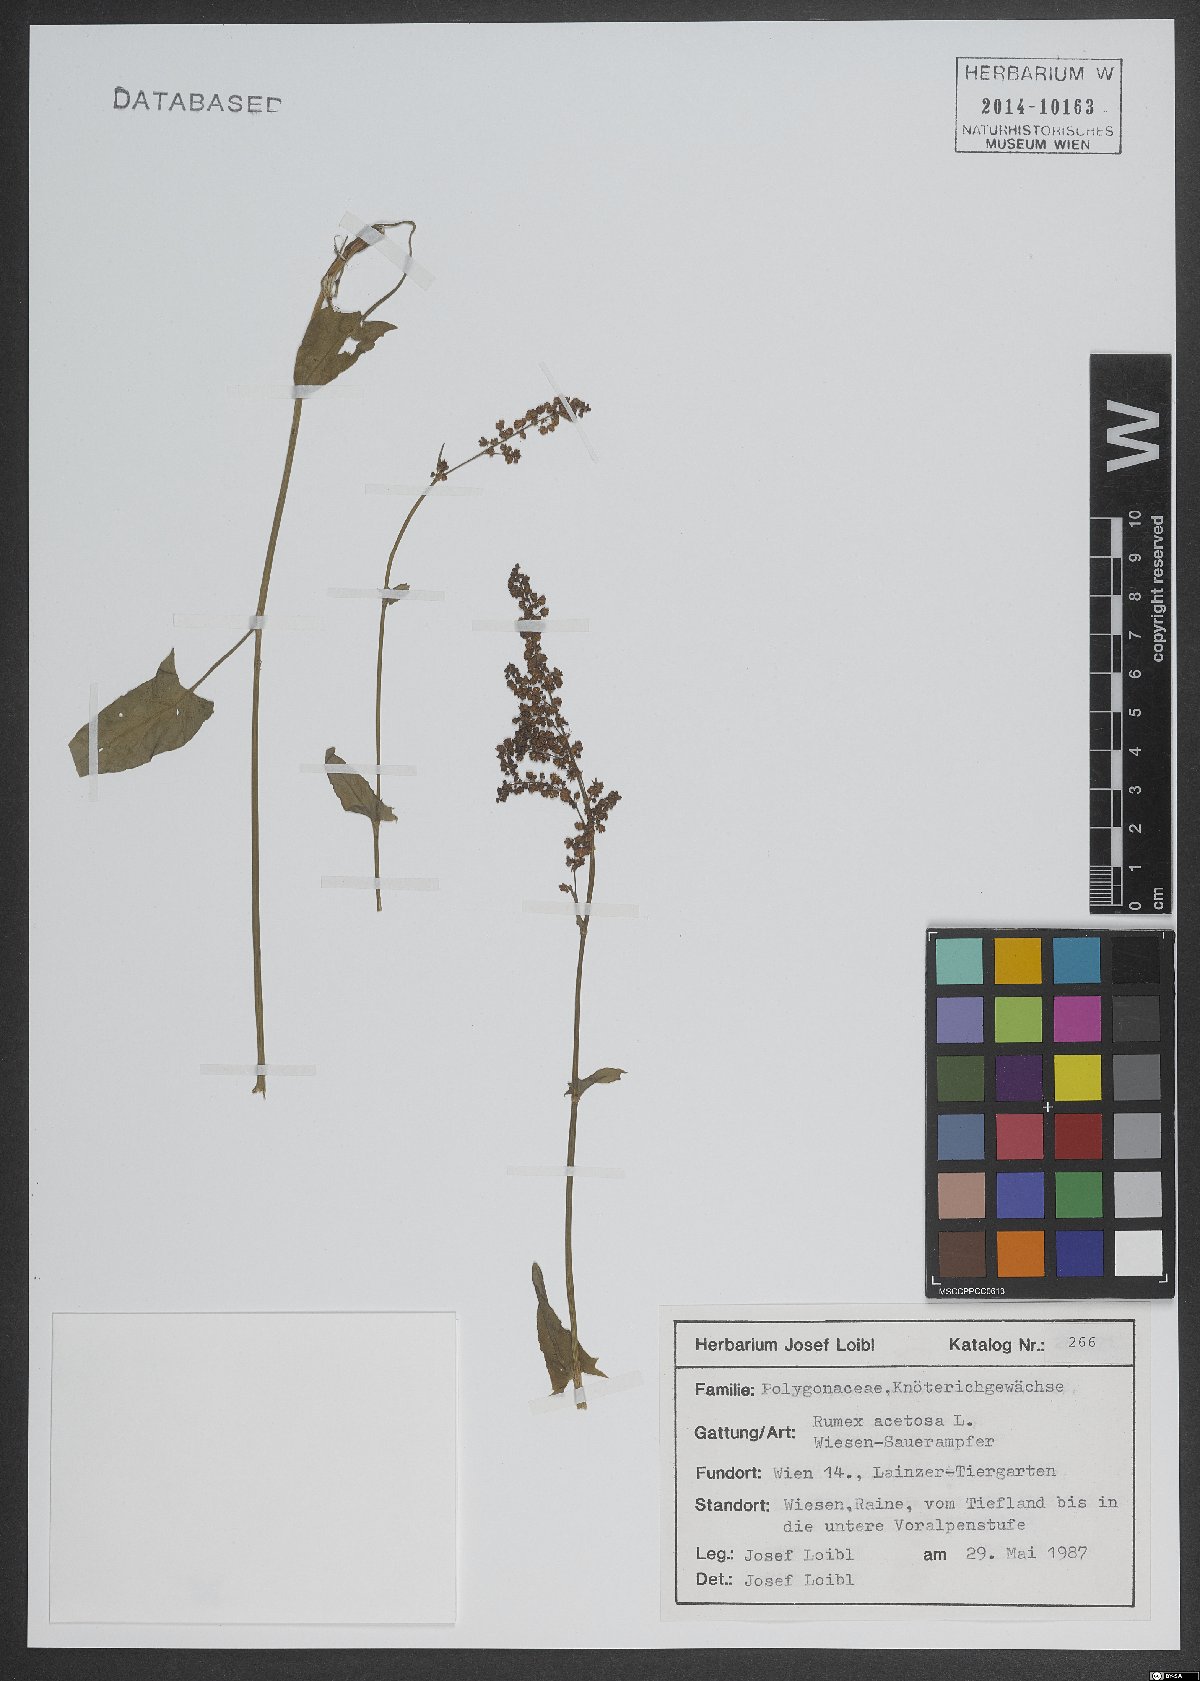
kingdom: Plantae
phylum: Tracheophyta
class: Magnoliopsida
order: Caryophyllales
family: Polygonaceae
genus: Rumex
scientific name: Rumex acetosa
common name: Garden sorrel
